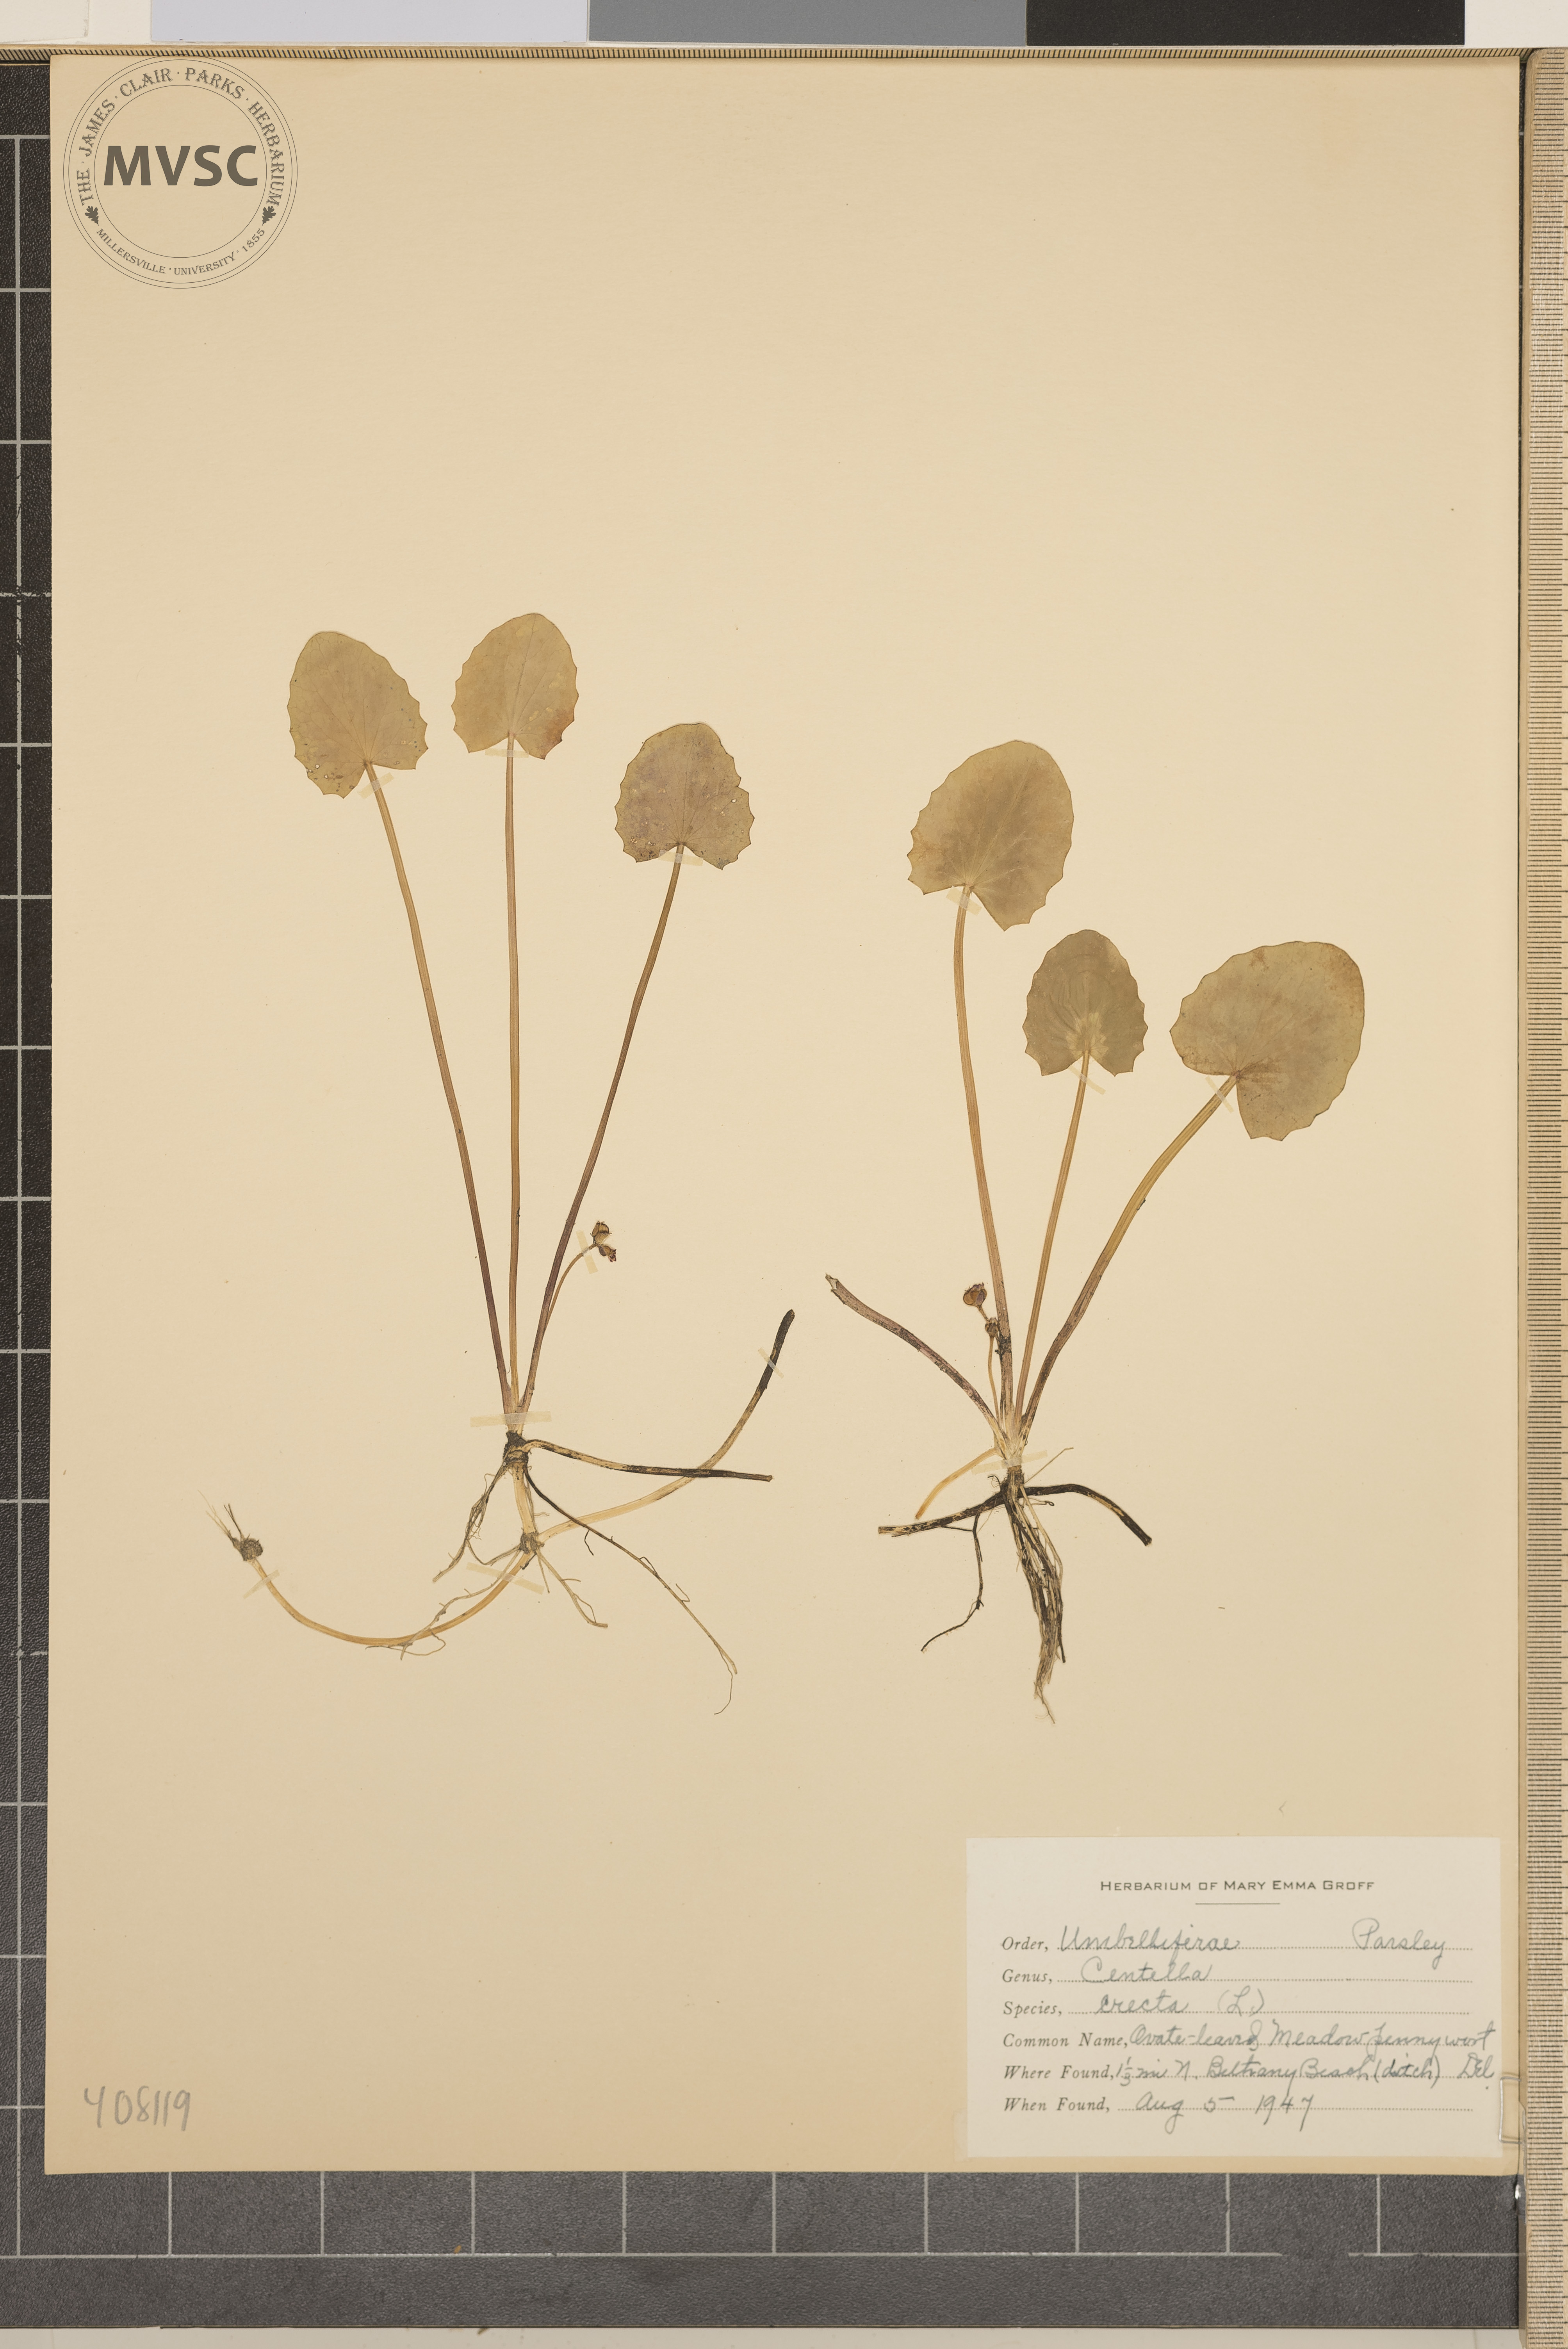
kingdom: Plantae
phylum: Tracheophyta
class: Magnoliopsida
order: Apiales
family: Apiaceae
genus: Centella
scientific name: Centella erecta
